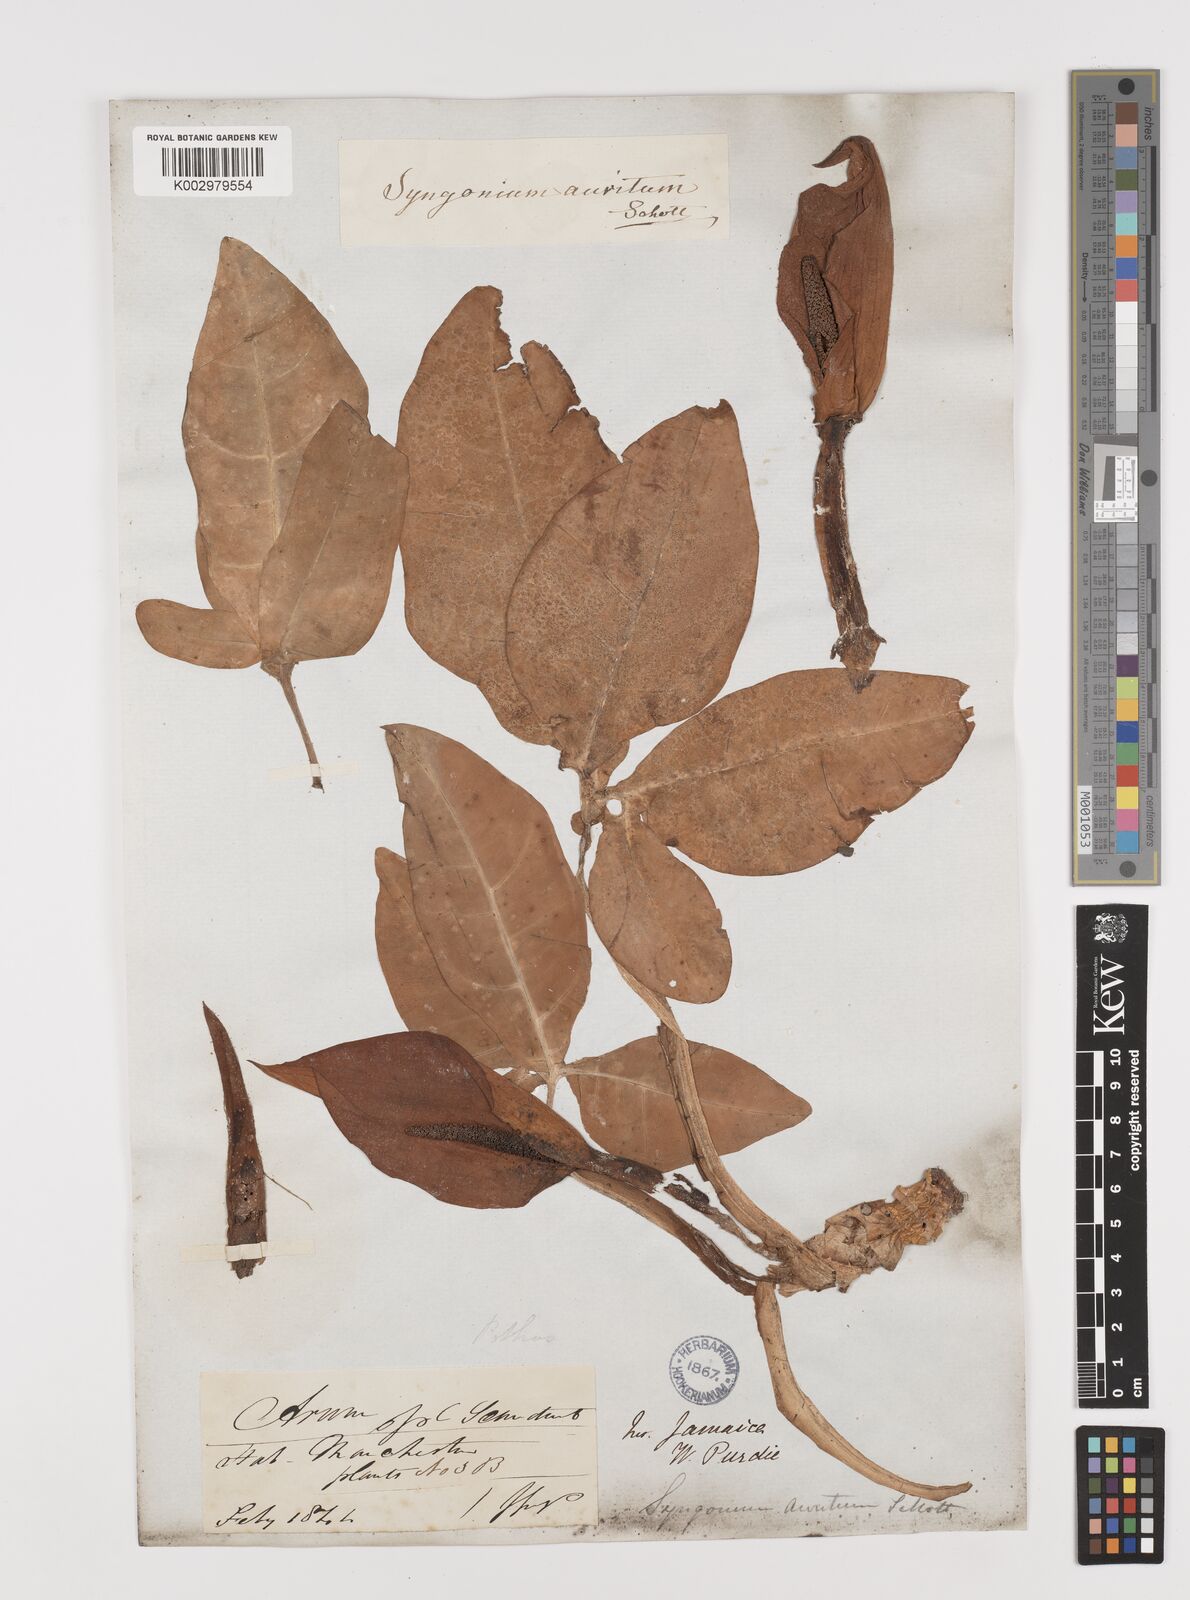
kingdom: Plantae
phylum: Tracheophyta
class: Liliopsida
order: Alismatales
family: Araceae
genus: Syngonium
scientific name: Syngonium auritum
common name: Five-fingers
